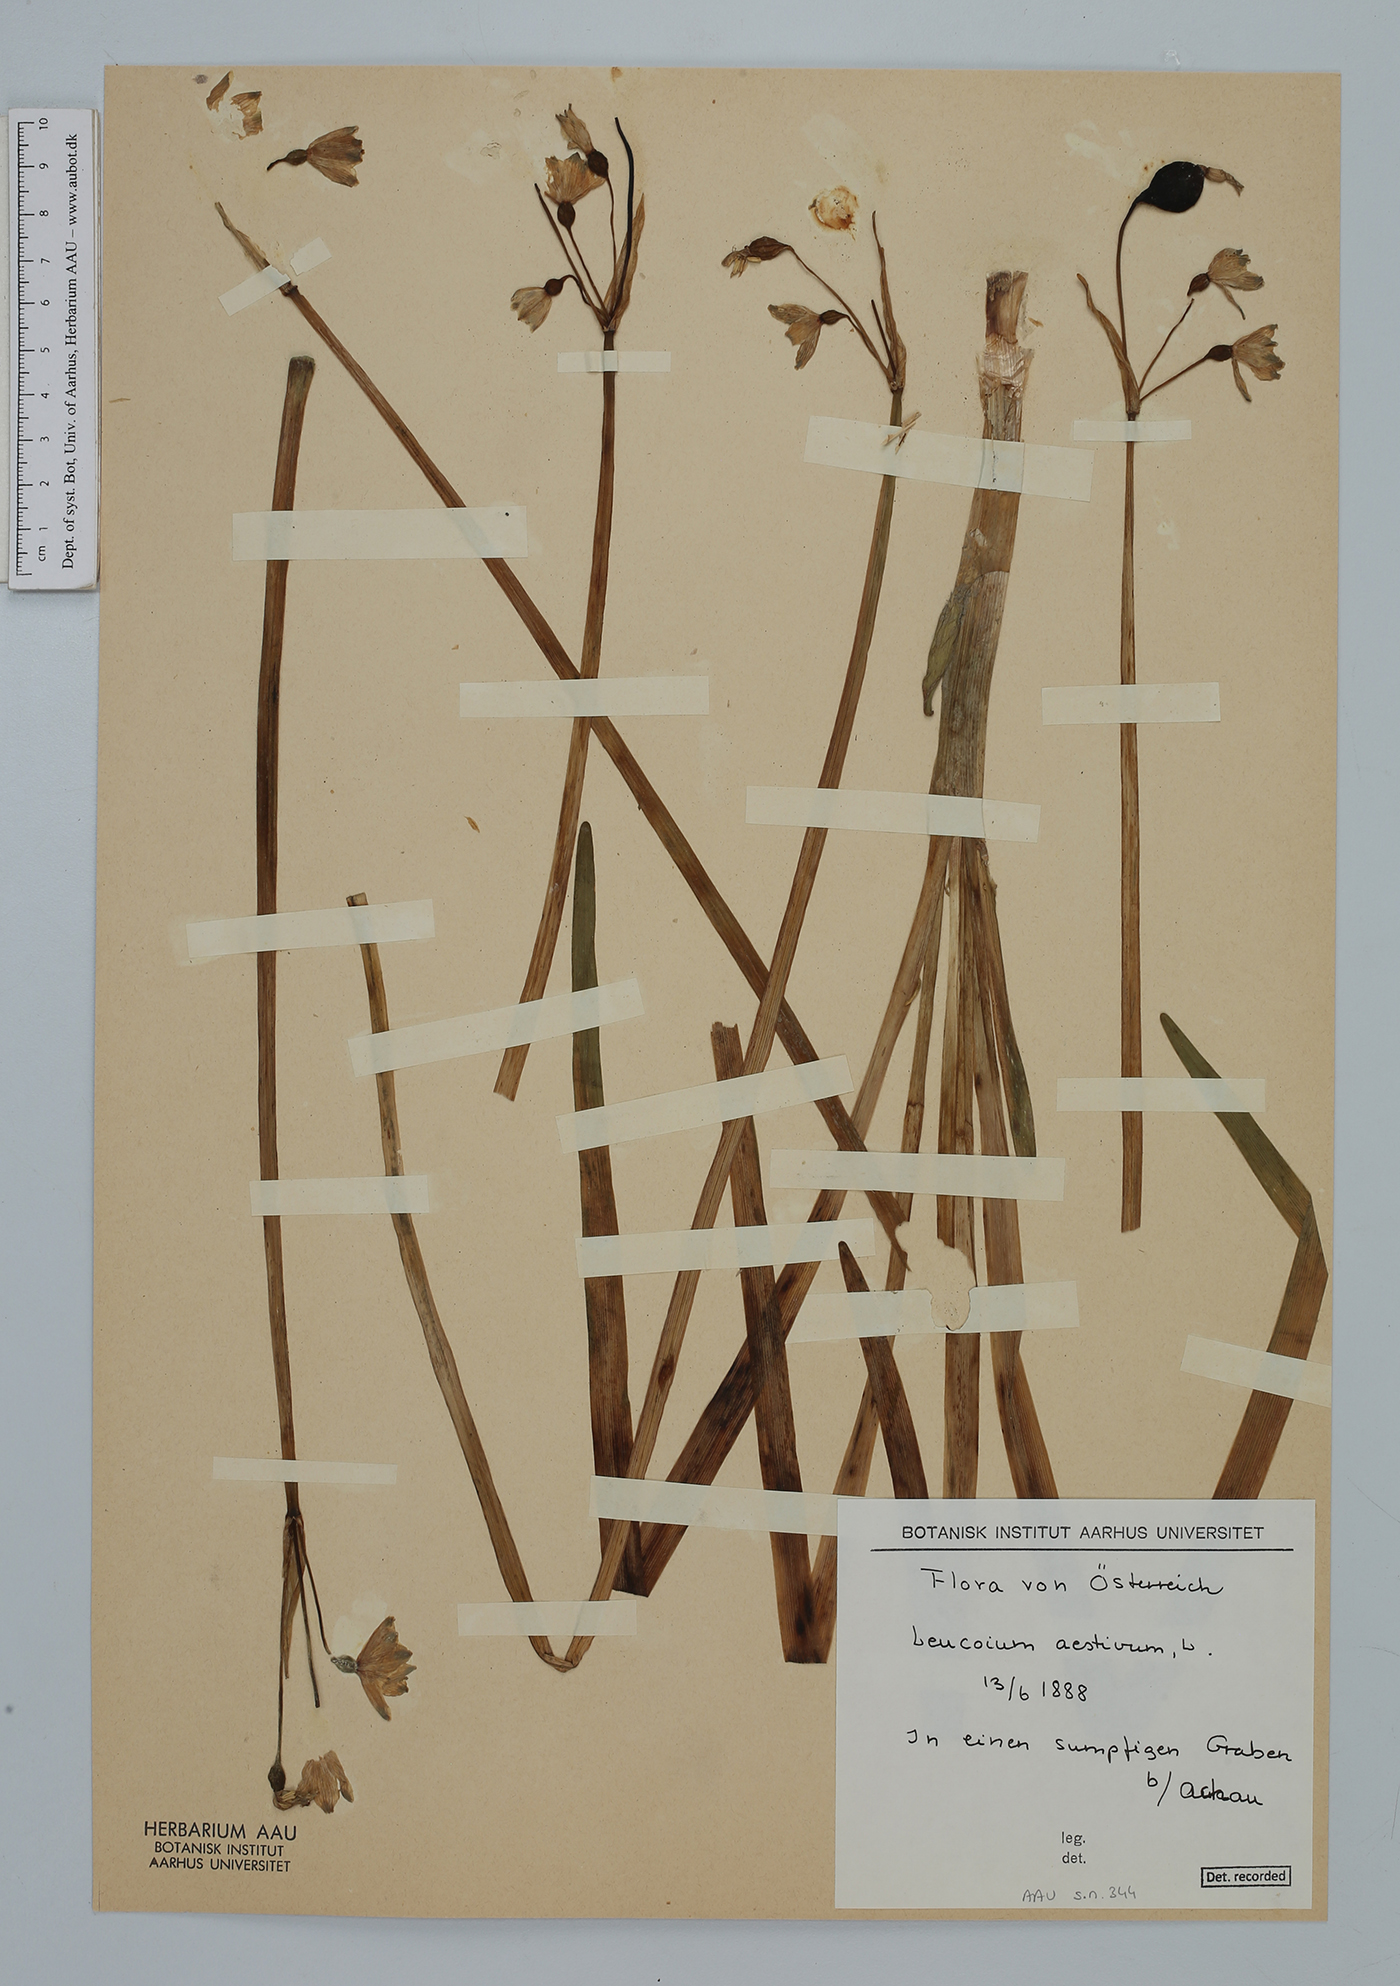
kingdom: Plantae
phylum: Tracheophyta
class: Liliopsida
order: Asparagales
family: Amaryllidaceae
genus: Leucojum
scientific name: Leucojum aestivum
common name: Summer snowflake
